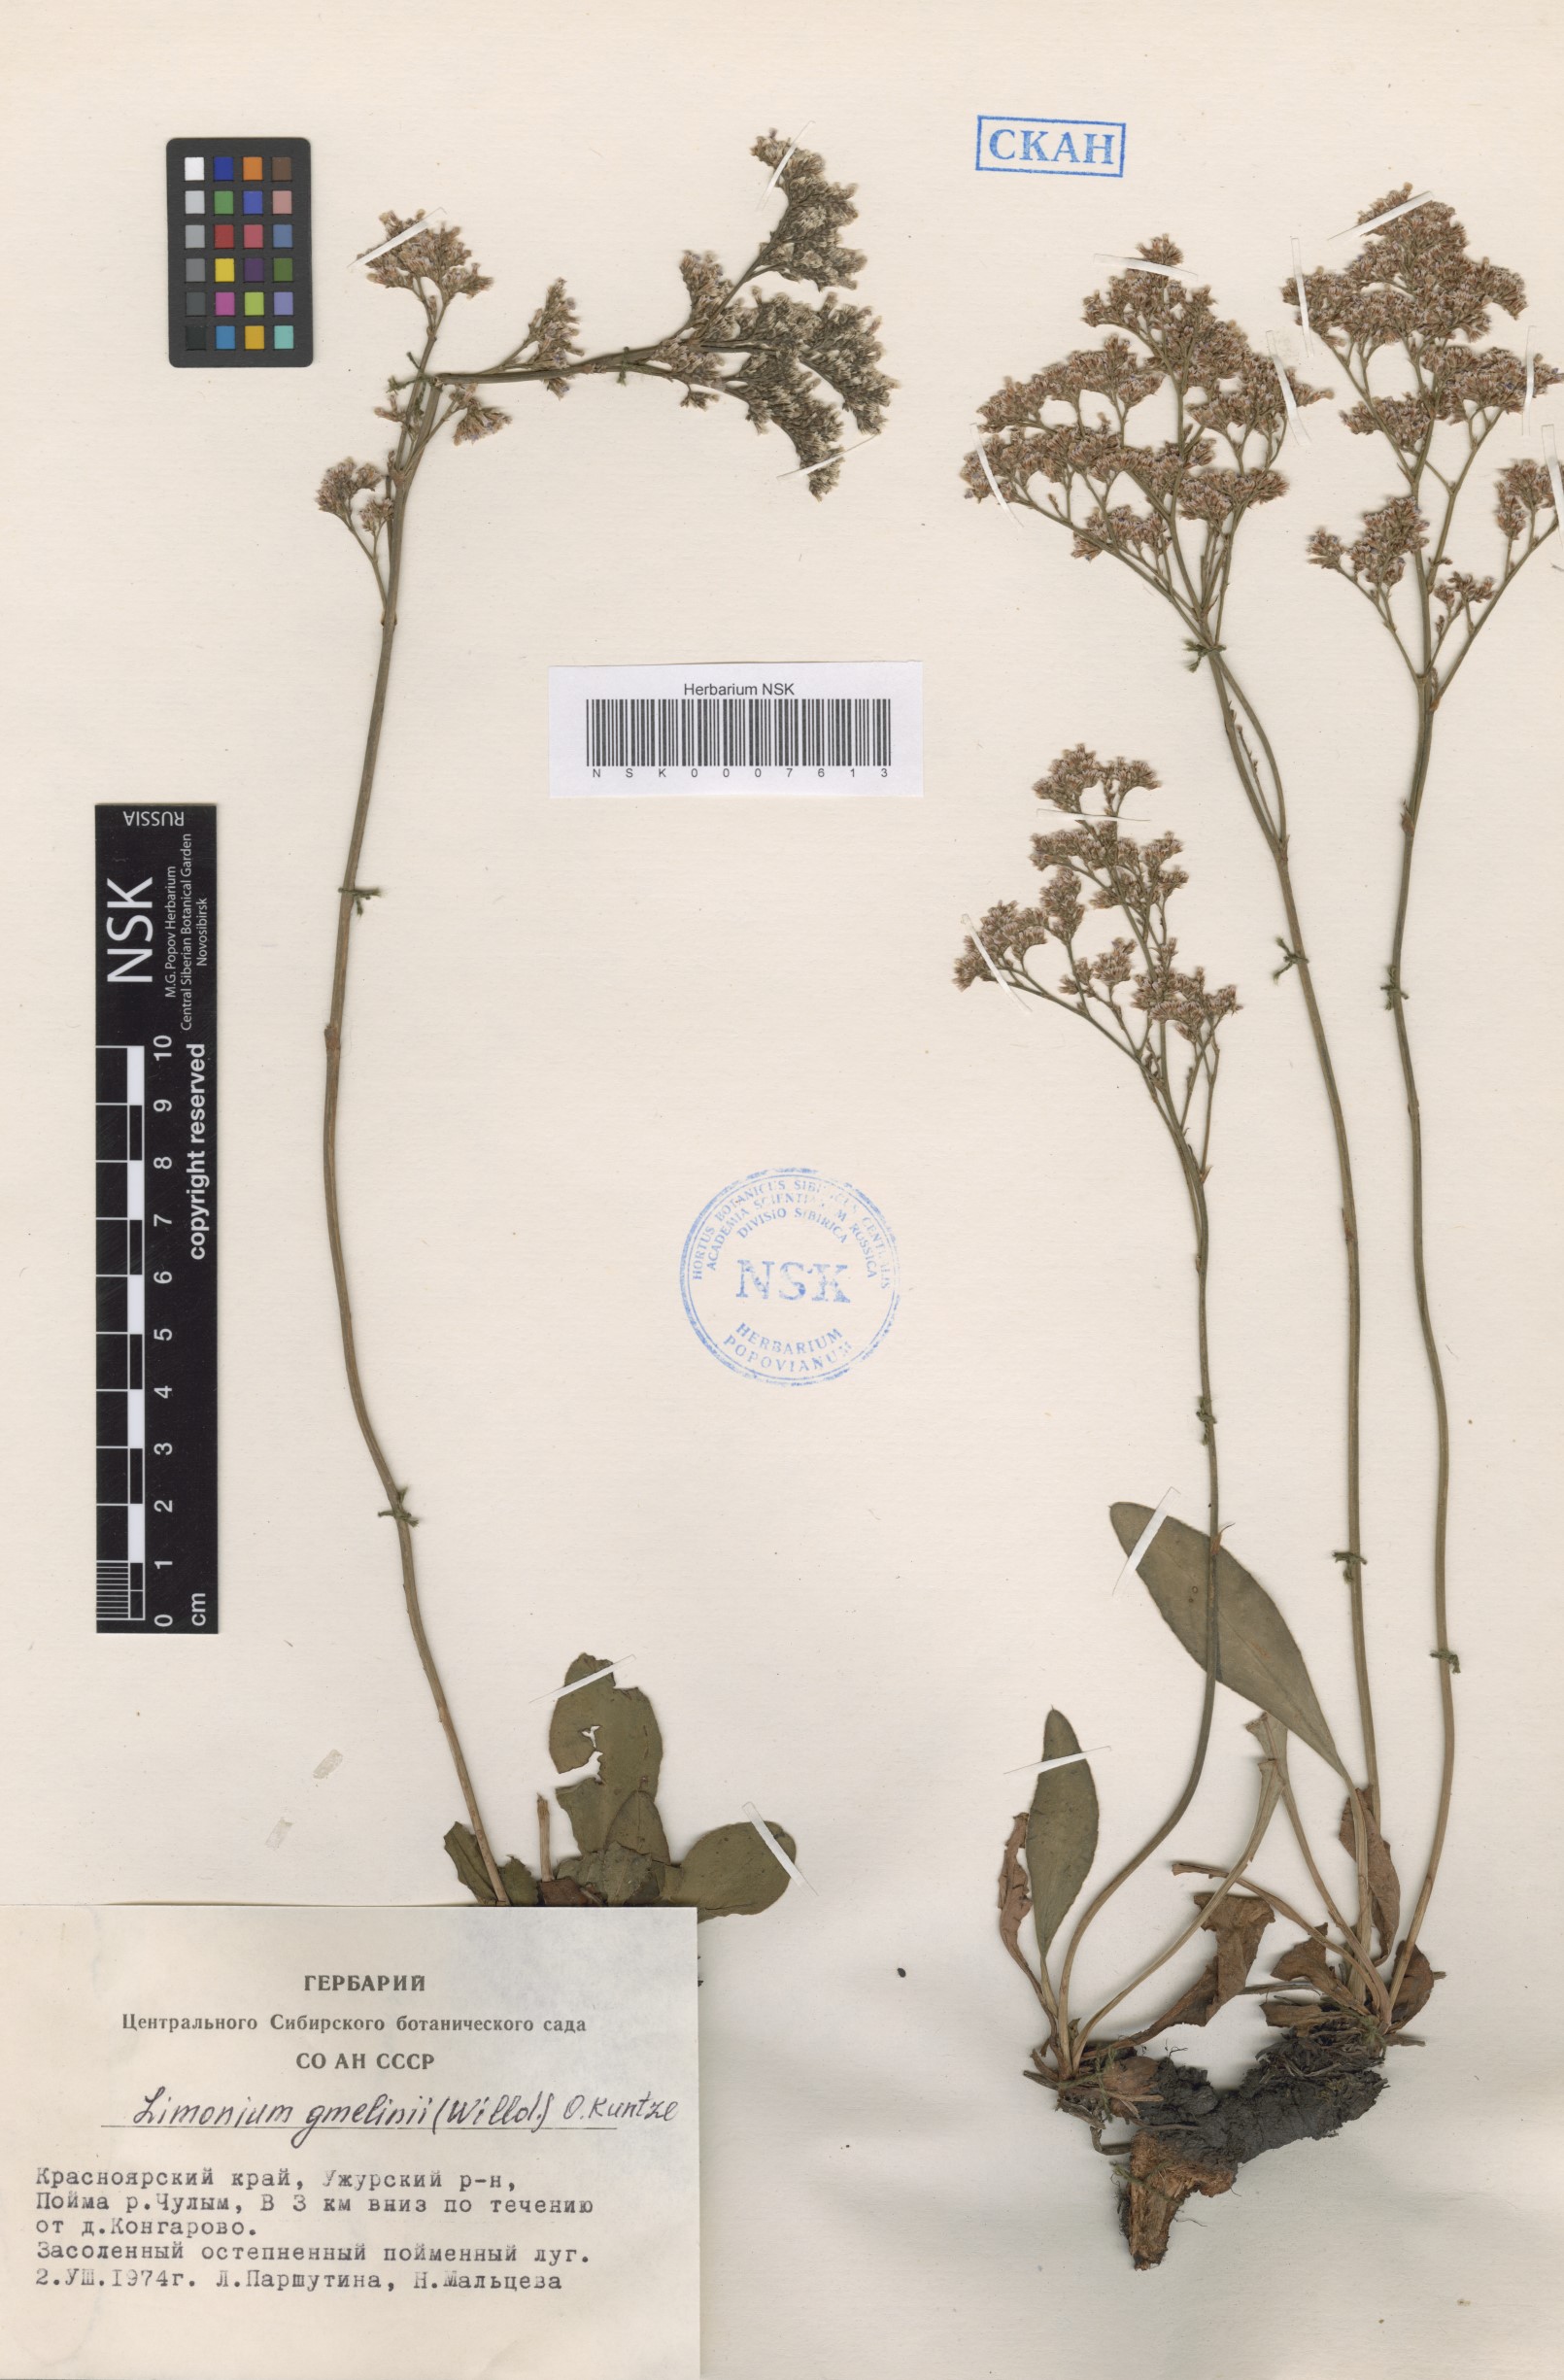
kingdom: Plantae
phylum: Tracheophyta
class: Magnoliopsida
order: Caryophyllales
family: Plumbaginaceae
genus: Limonium
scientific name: Limonium gmelini
